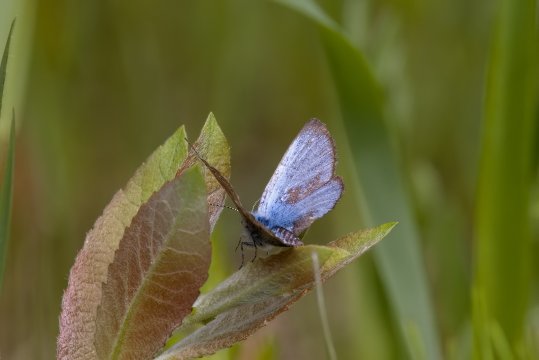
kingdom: Animalia
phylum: Arthropoda
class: Insecta
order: Lepidoptera
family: Lycaenidae
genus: Glaucopsyche
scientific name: Glaucopsyche lygdamus
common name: Silvery Blue
